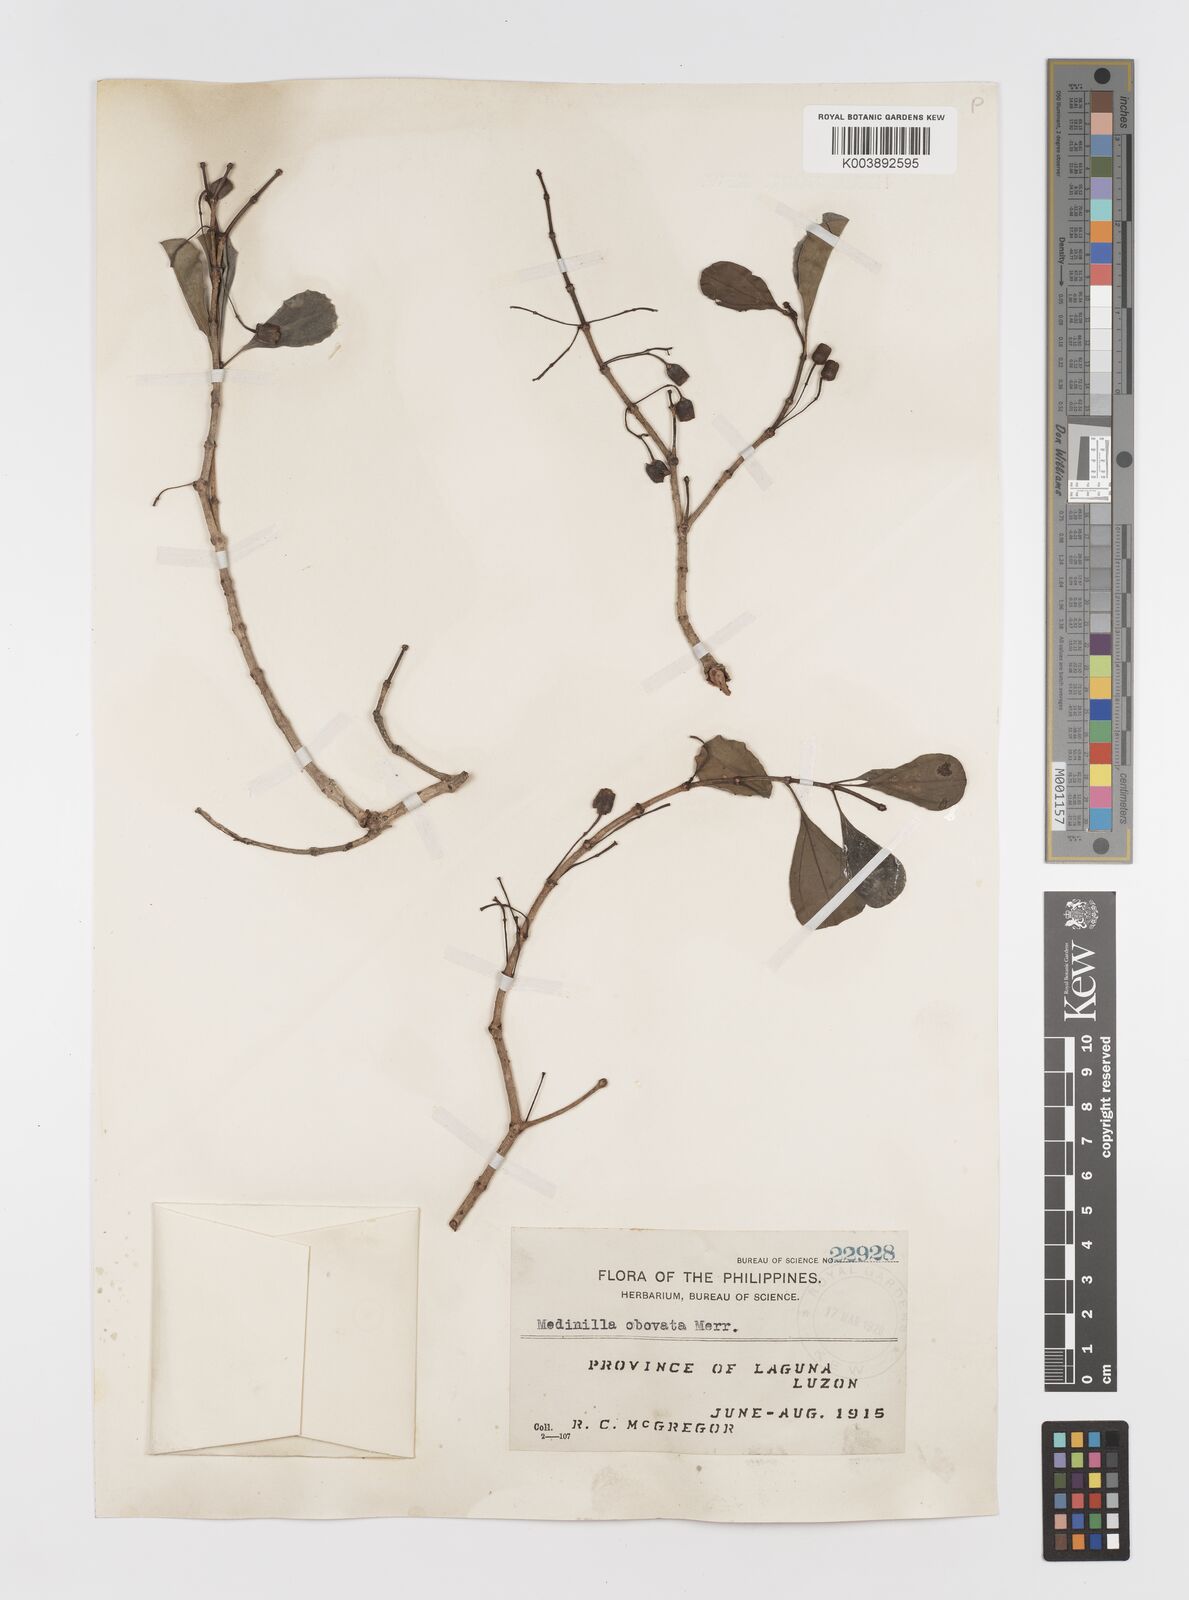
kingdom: Plantae
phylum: Tracheophyta
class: Magnoliopsida
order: Myrtales
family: Melastomataceae
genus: Medinilla
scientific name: Medinilla obovata
